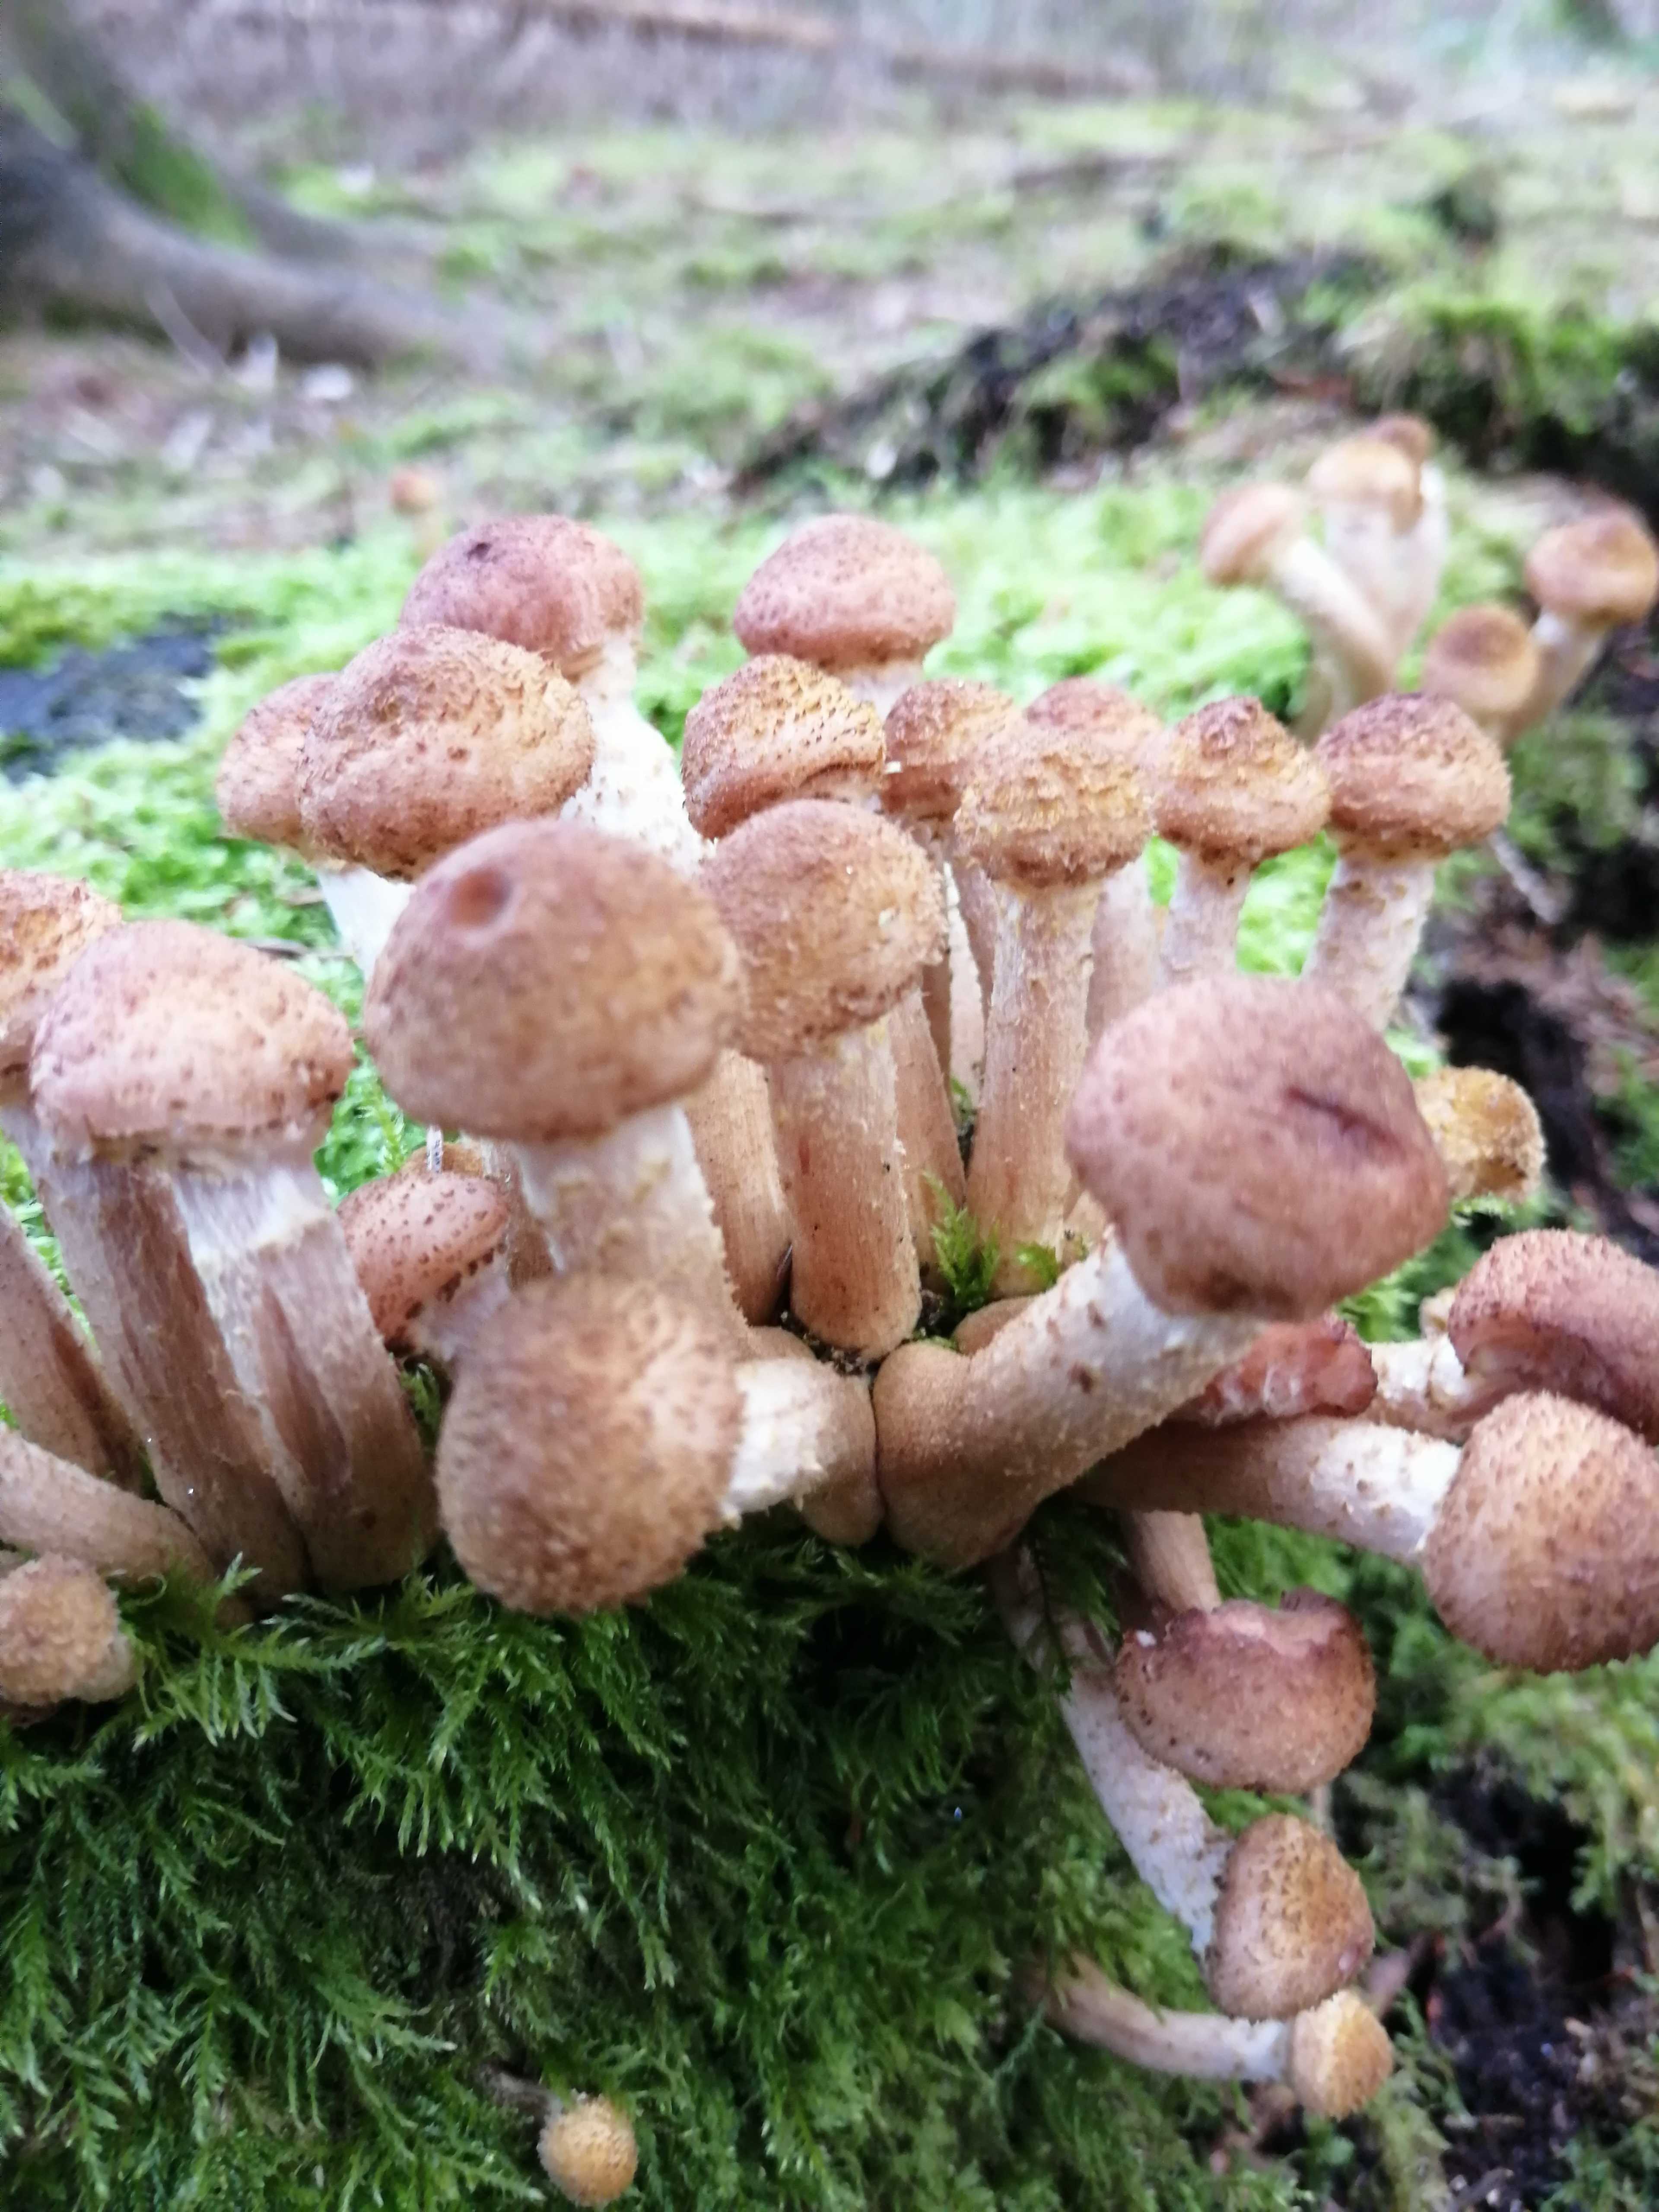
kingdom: Fungi
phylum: Basidiomycota
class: Agaricomycetes
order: Agaricales
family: Physalacriaceae
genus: Armillaria
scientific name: Armillaria lutea
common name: køllestokket honningsvamp
